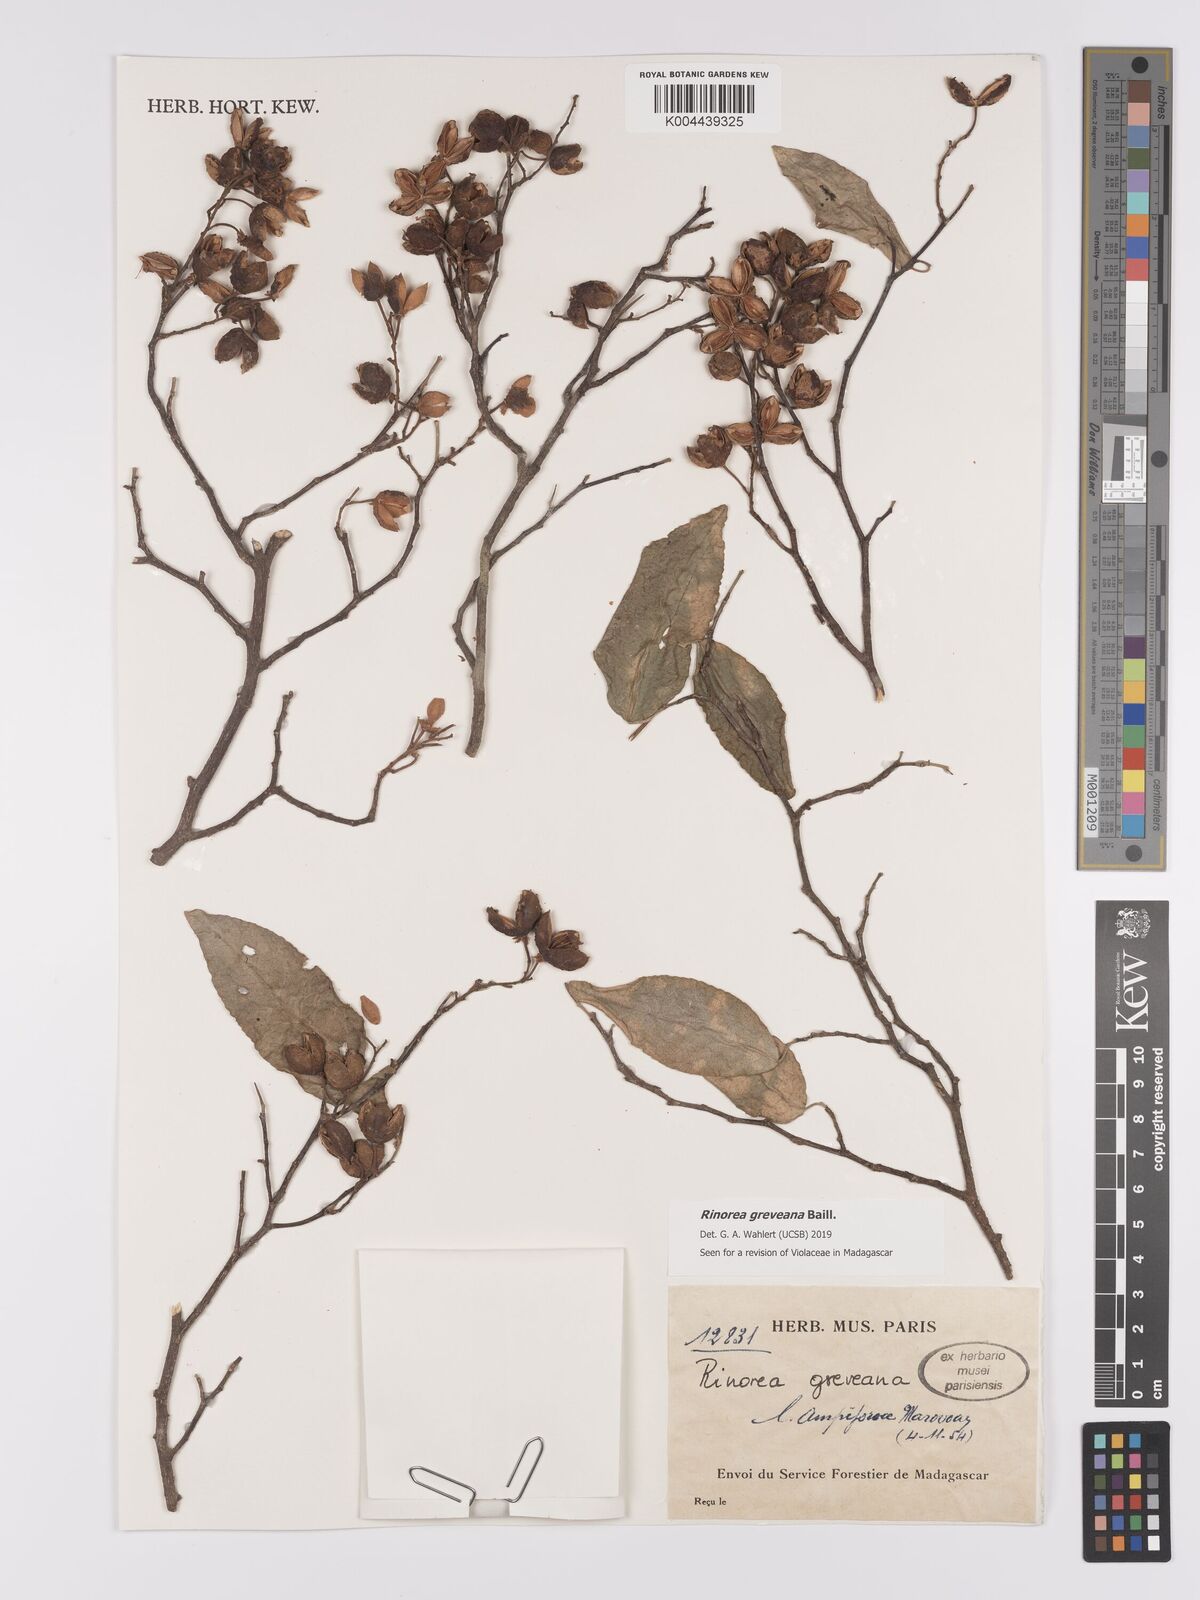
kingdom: Plantae
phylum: Tracheophyta
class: Magnoliopsida
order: Malpighiales
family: Violaceae
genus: Rinorea
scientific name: Rinorea greveana
